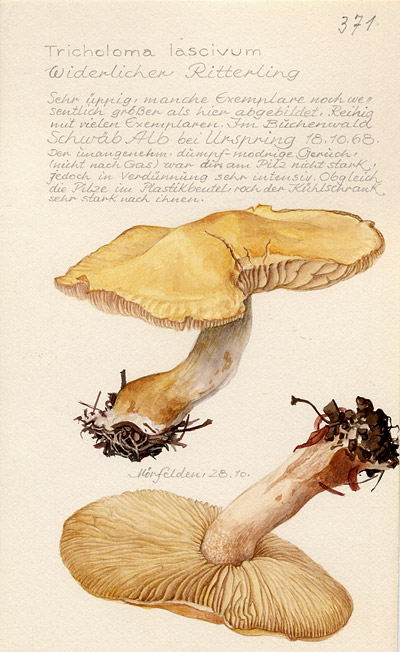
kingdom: Fungi
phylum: Basidiomycota
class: Agaricomycetes
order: Agaricales
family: Tricholomataceae
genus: Tricholoma
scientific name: Tricholoma lascivum
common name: Aromatic knight
